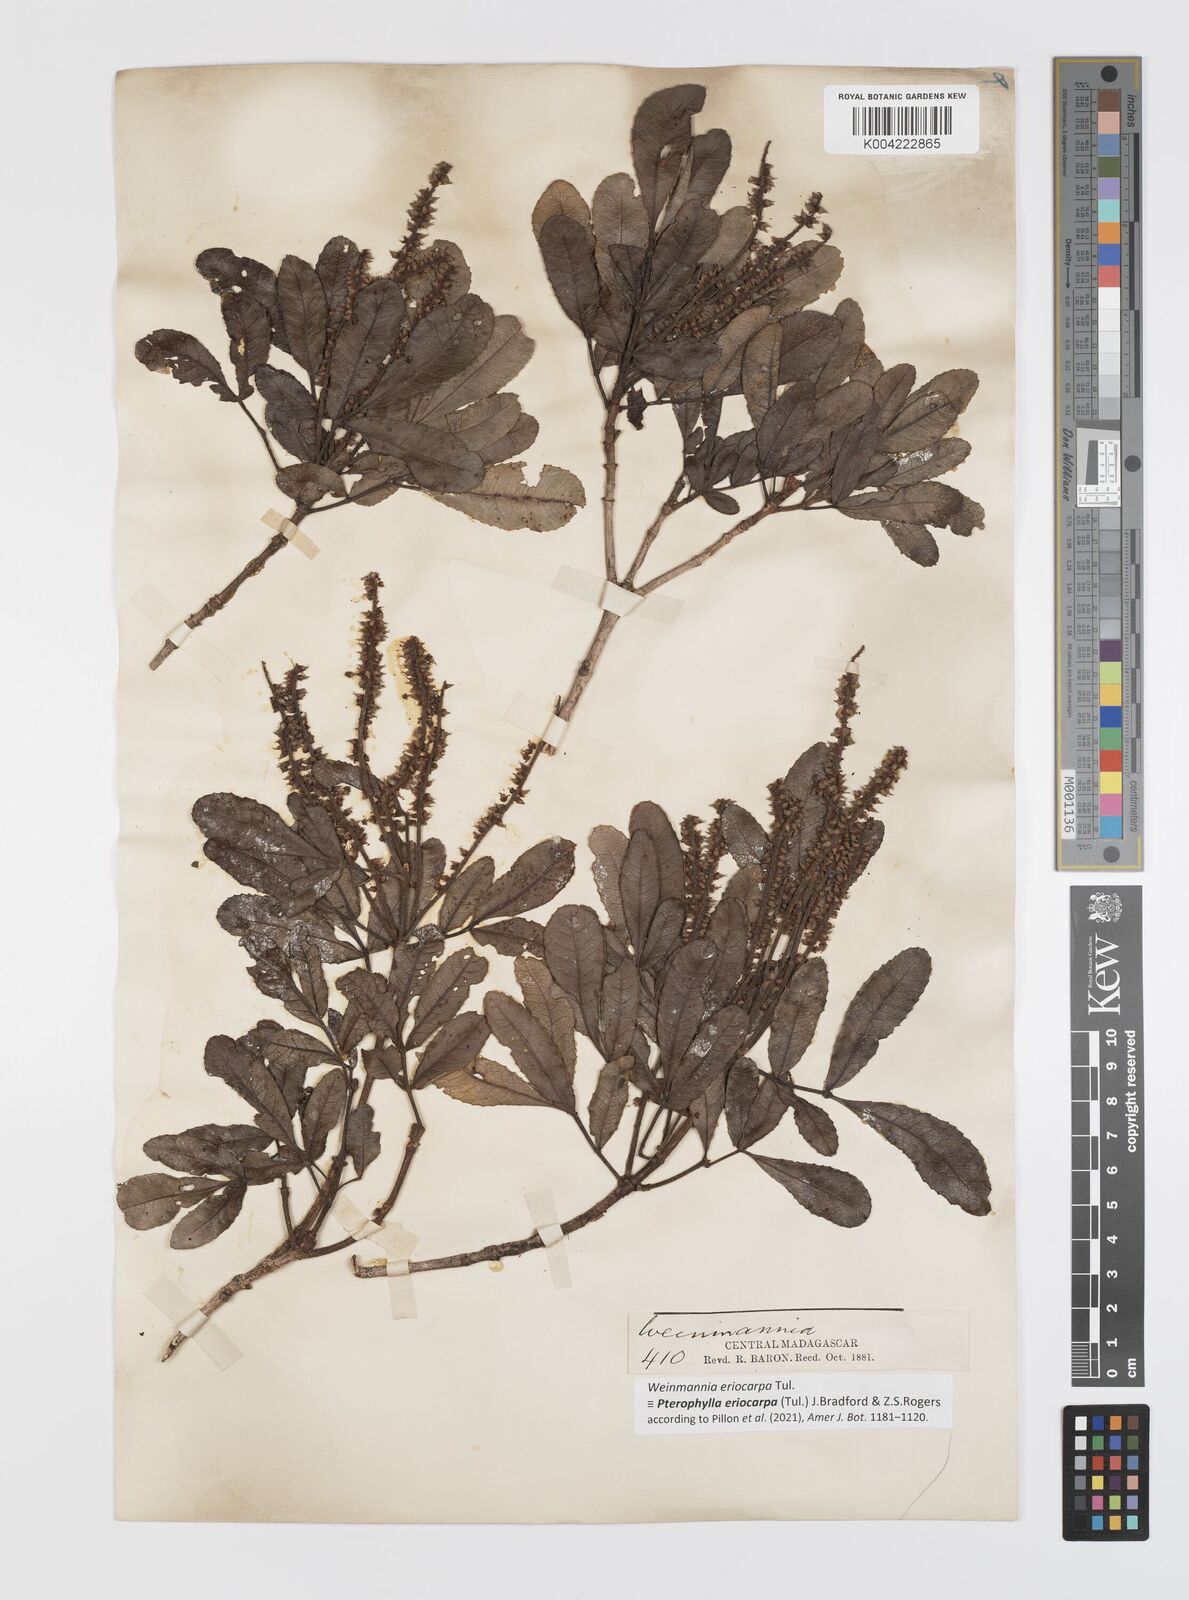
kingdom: Plantae
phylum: Tracheophyta
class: Magnoliopsida
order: Oxalidales
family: Cunoniaceae
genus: Pterophylla
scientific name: Pterophylla eriocarpa
